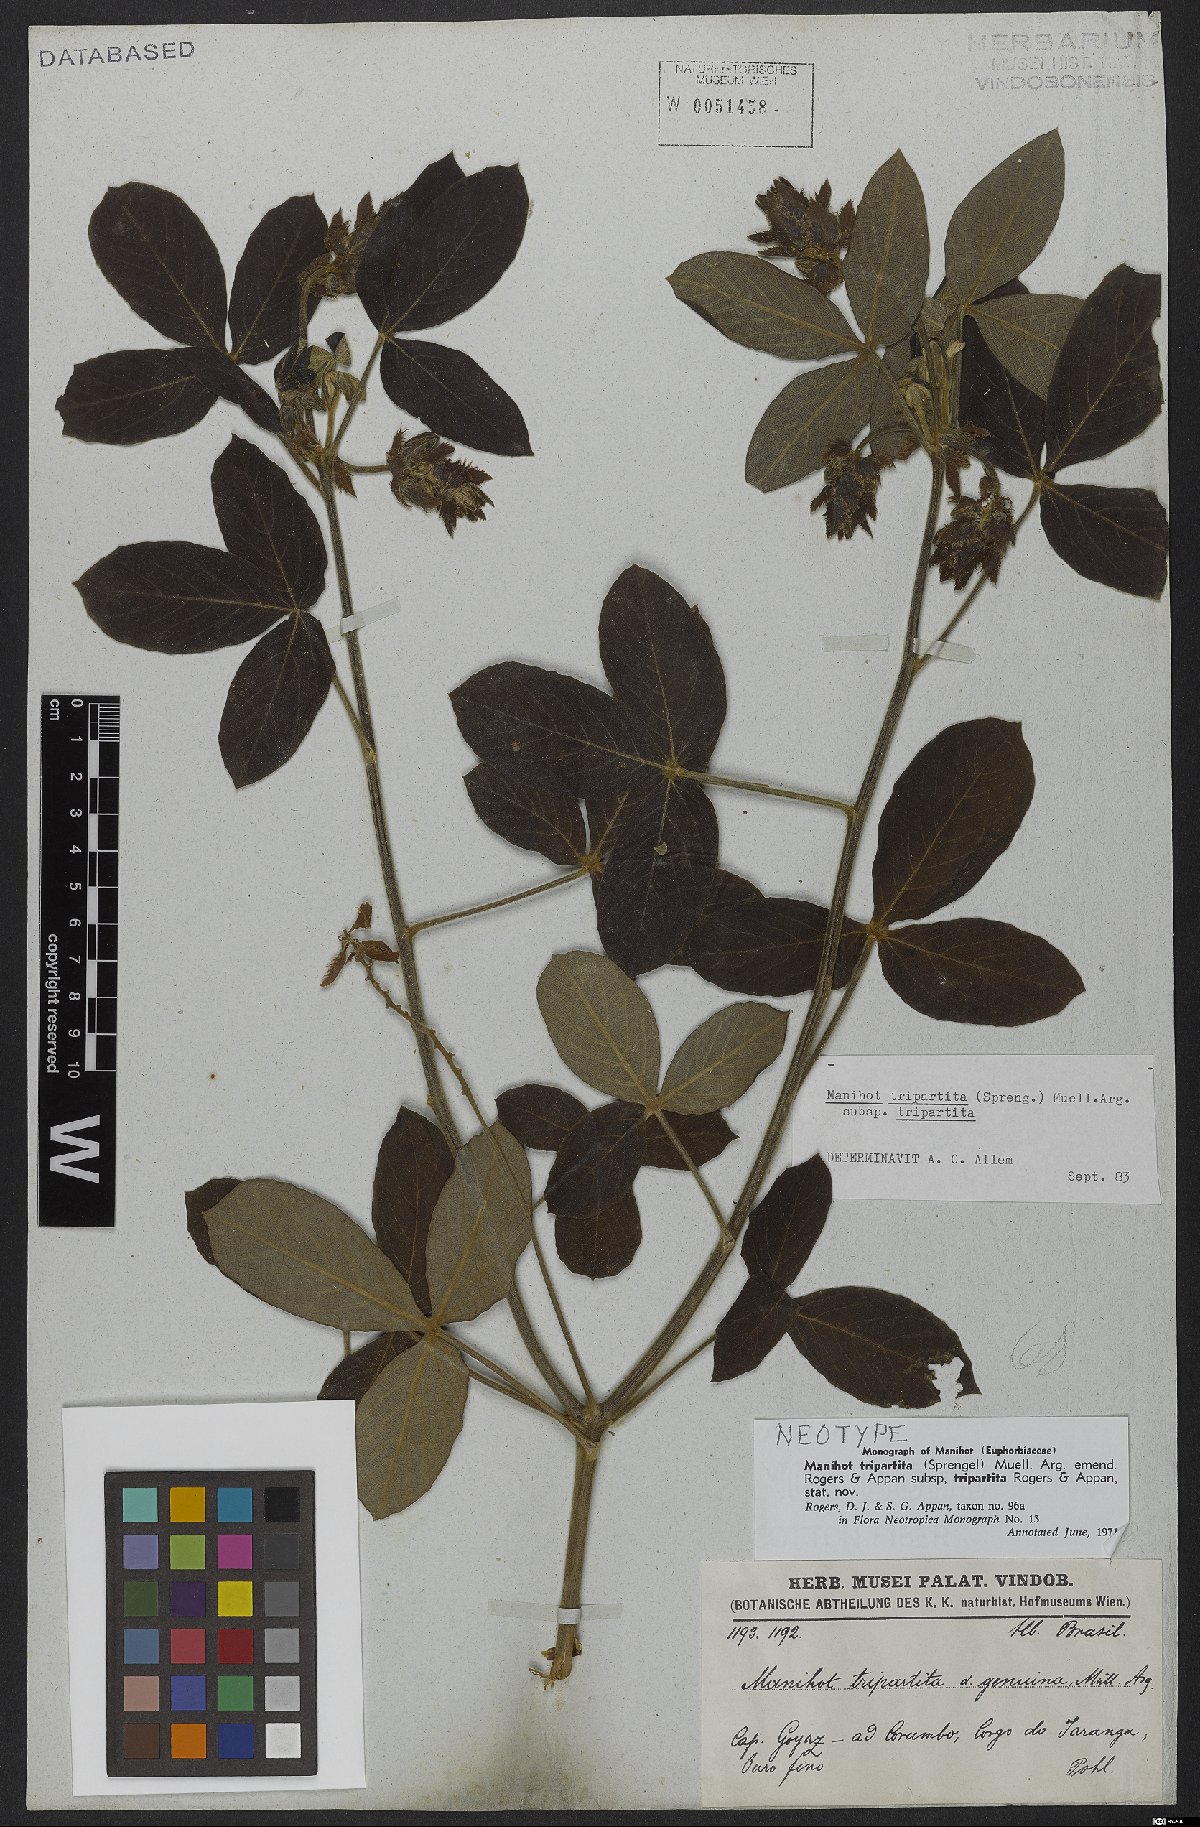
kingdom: Plantae
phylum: Tracheophyta
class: Magnoliopsida
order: Malpighiales
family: Euphorbiaceae
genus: Manihot
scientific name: Manihot tripartita
